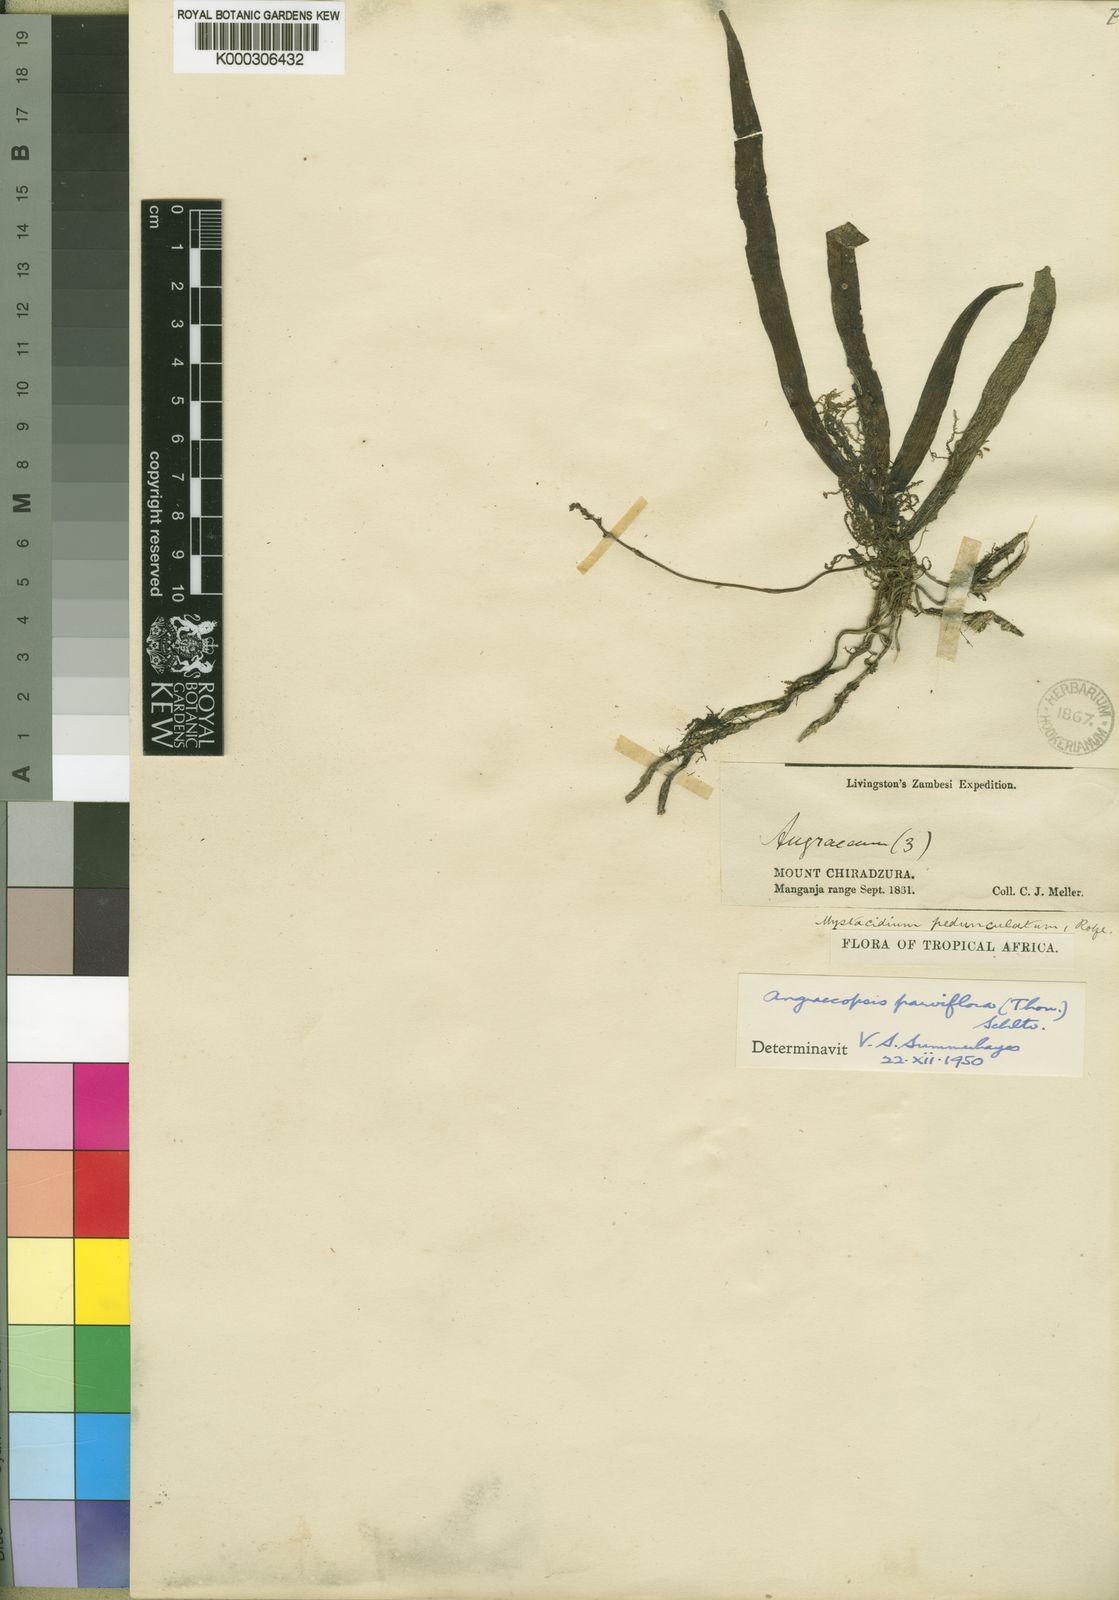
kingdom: Plantae
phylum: Tracheophyta
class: Liliopsida
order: Asparagales
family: Orchidaceae
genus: Angraecopsis
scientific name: Angraecopsis parviflora
